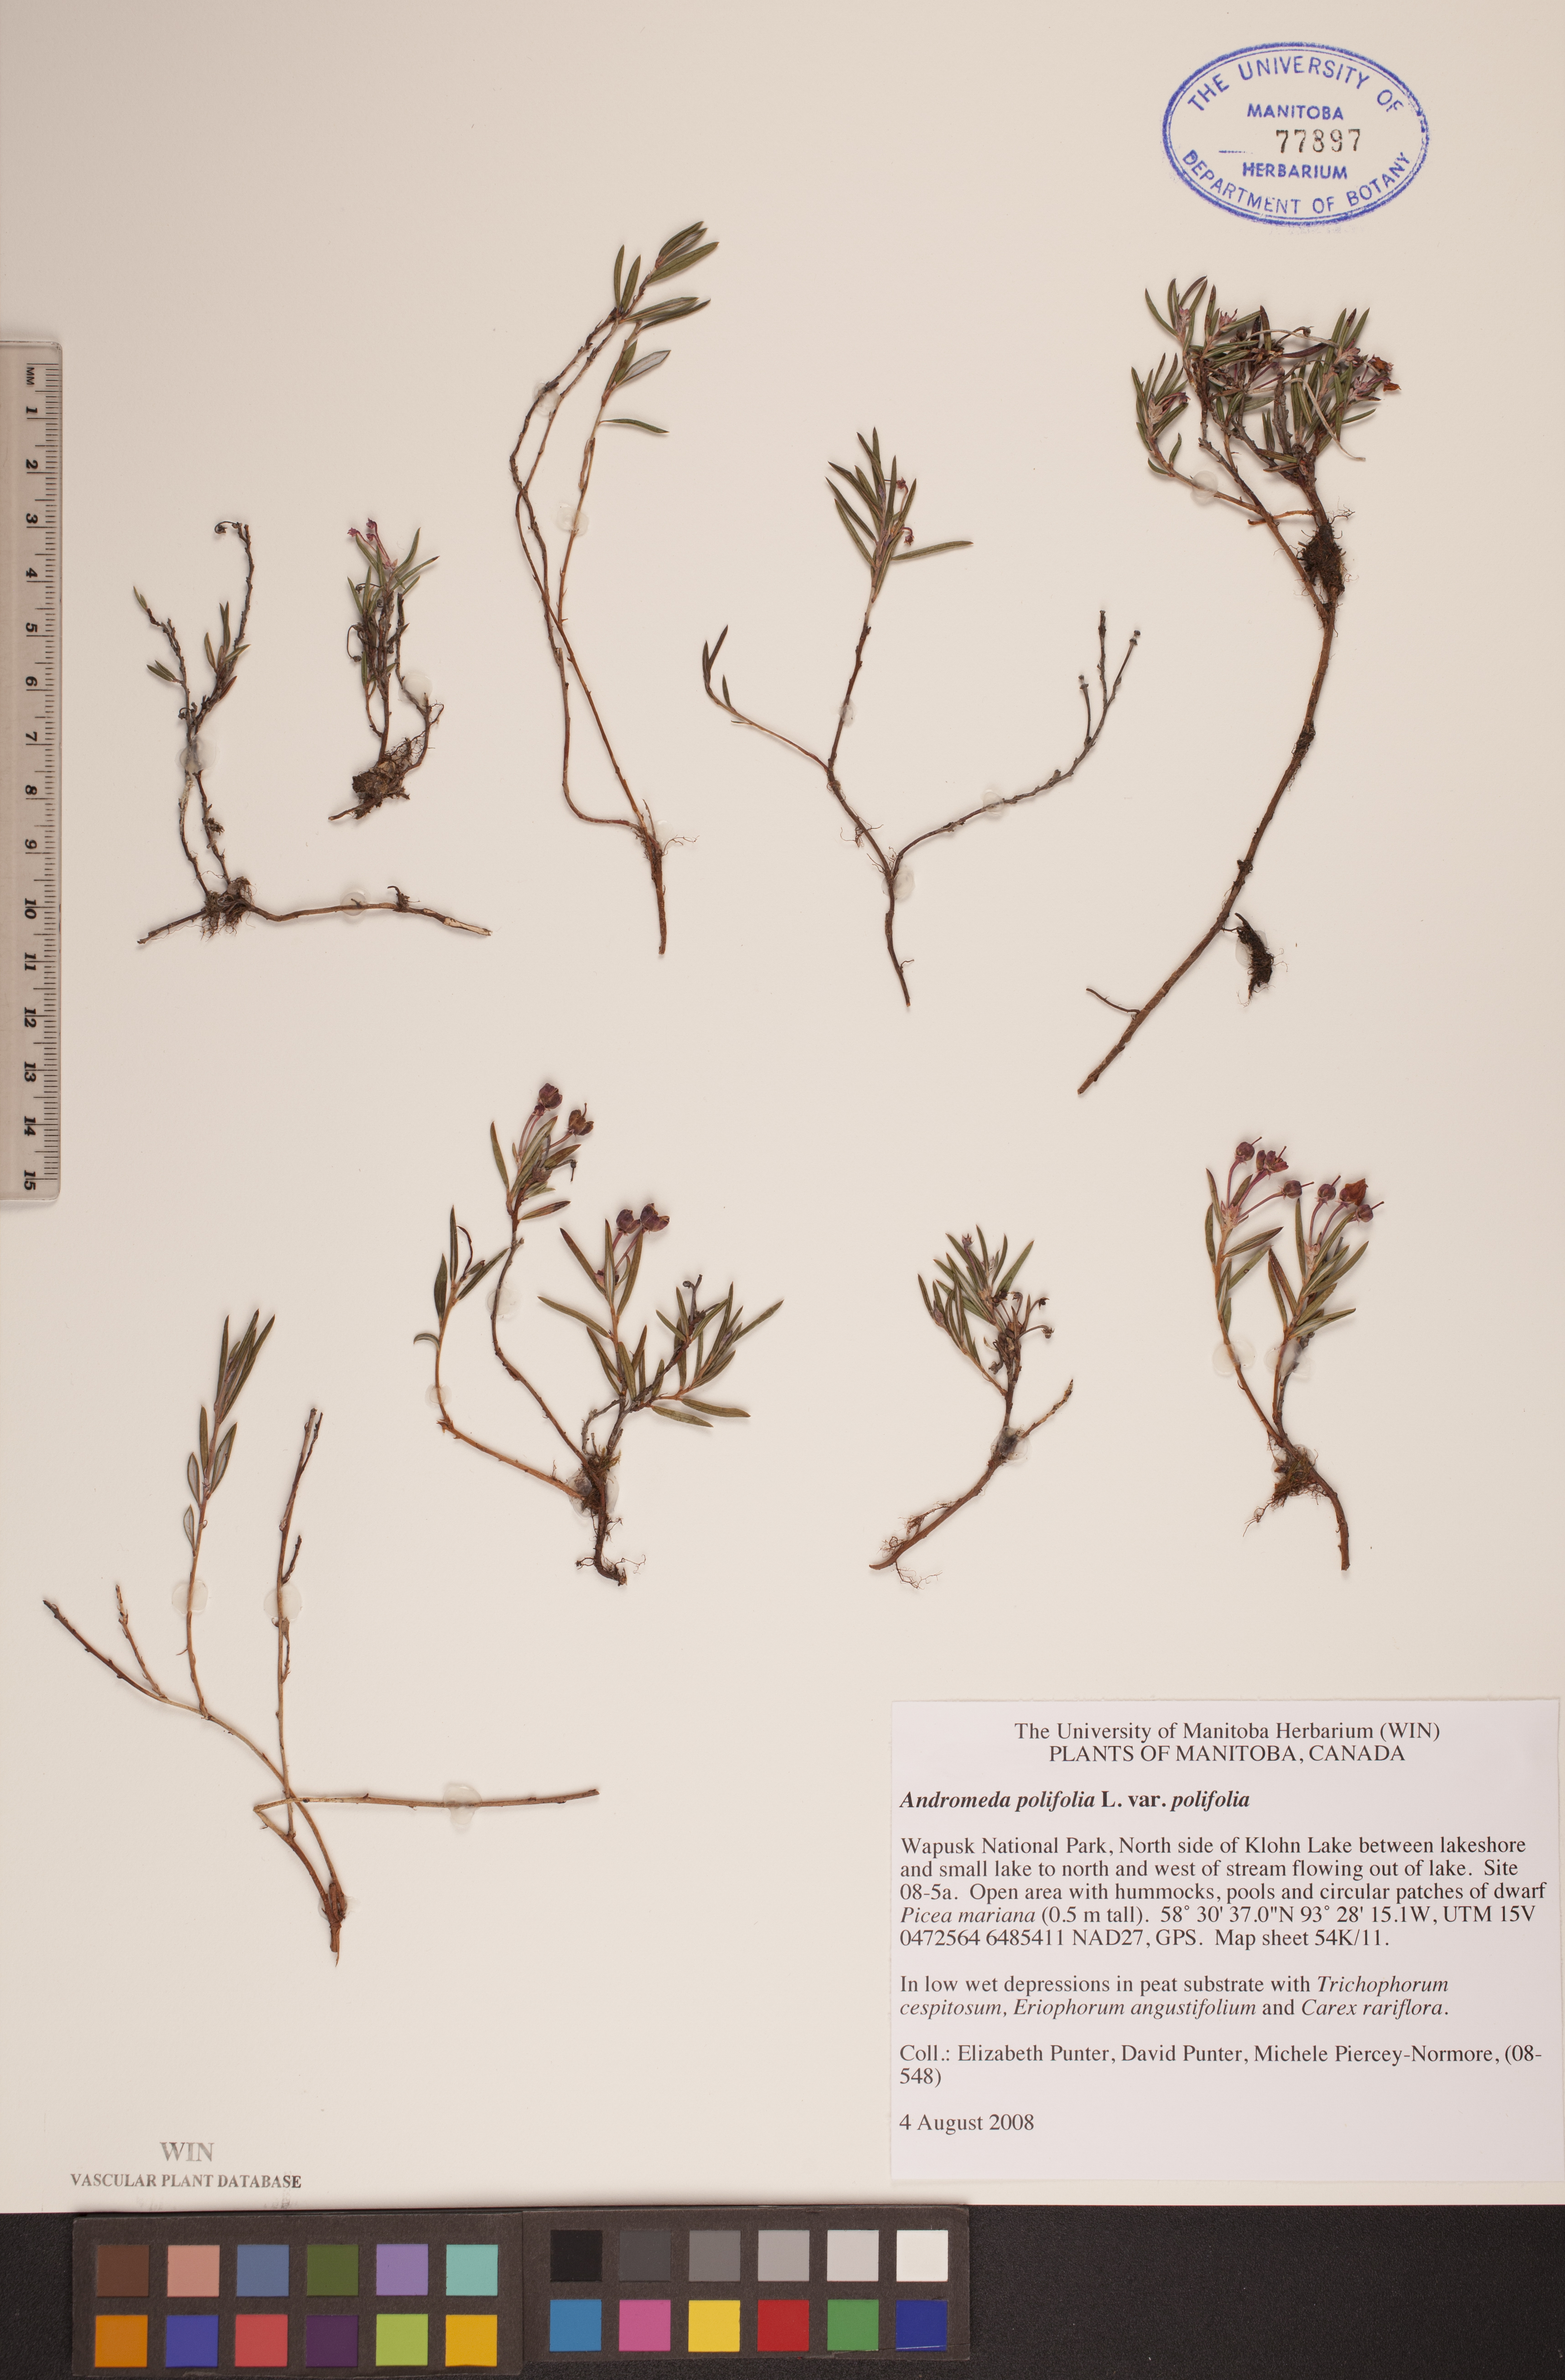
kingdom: Plantae
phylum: Tracheophyta
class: Magnoliopsida
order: Ericales
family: Ericaceae
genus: Andromeda
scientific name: Andromeda polifolia
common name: Bog-rosemary
